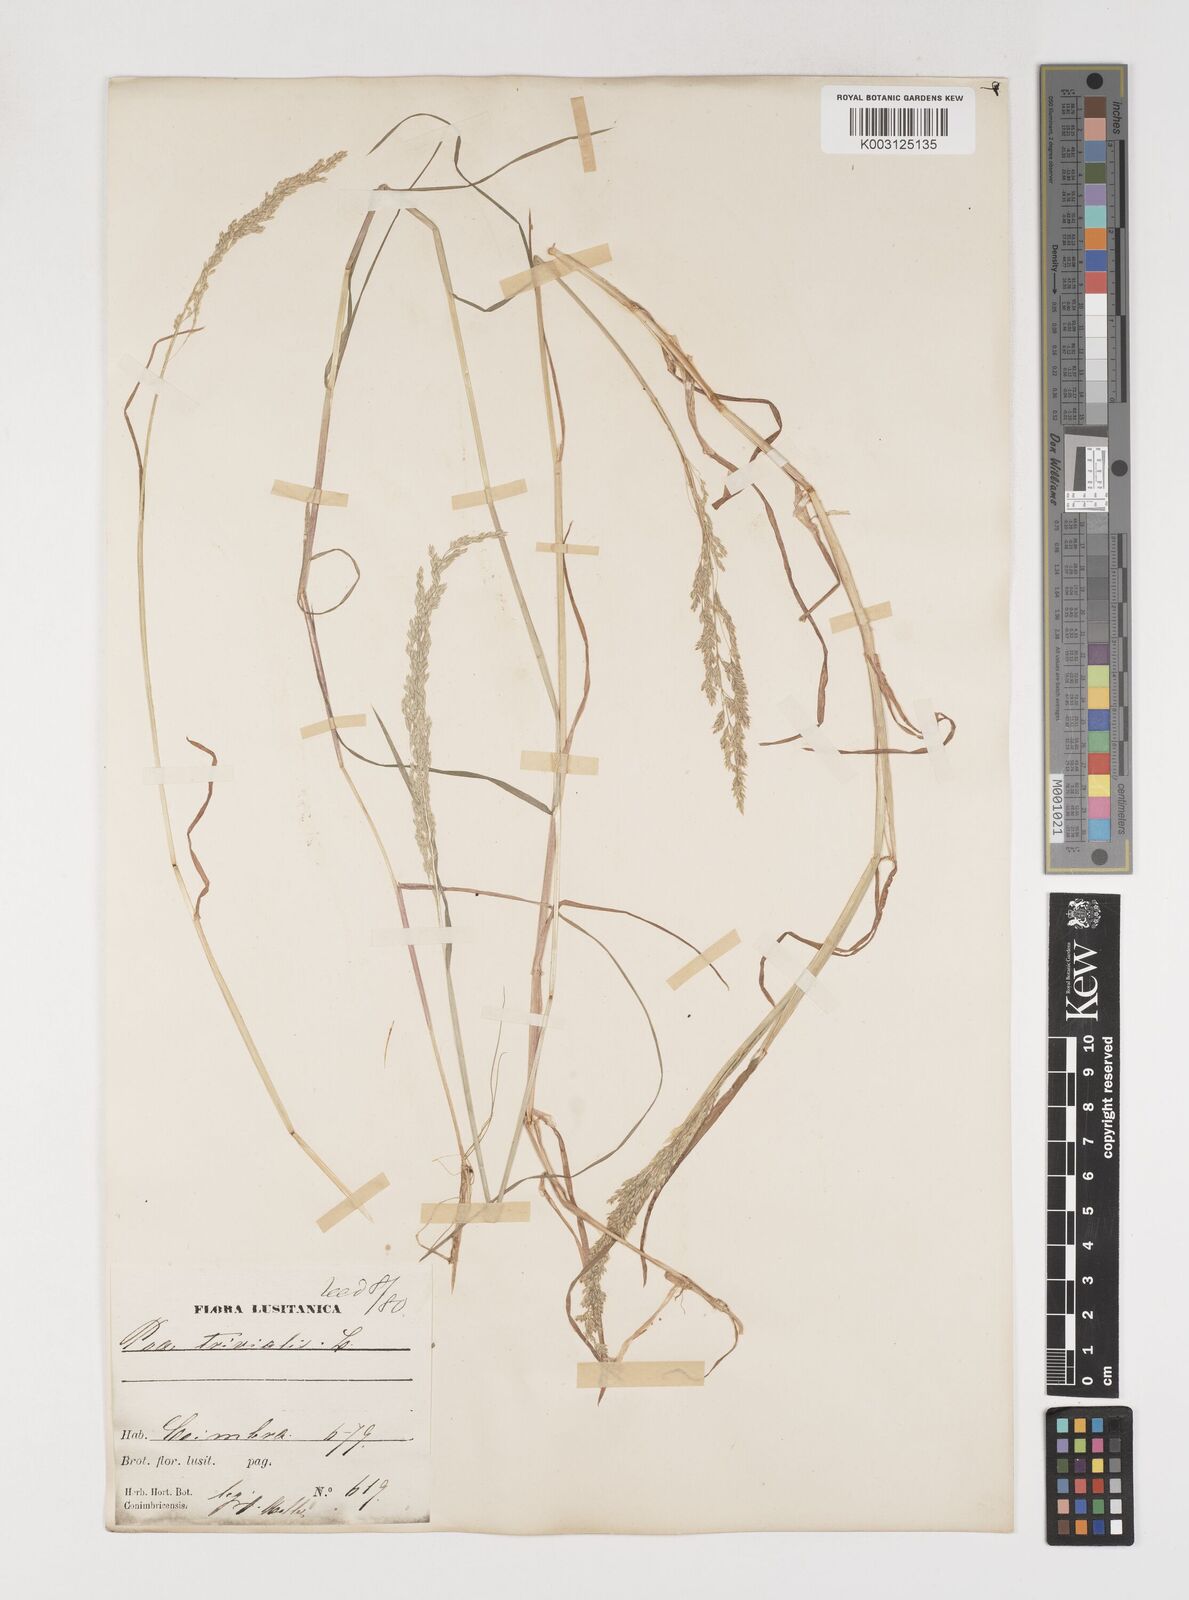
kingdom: Plantae
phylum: Tracheophyta
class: Liliopsida
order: Poales
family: Poaceae
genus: Poa
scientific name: Poa trivialis
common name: Rough bluegrass
